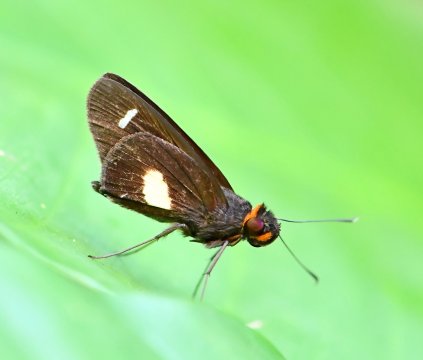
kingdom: Animalia
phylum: Arthropoda
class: Insecta
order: Lepidoptera
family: Hesperiidae
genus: Cobalus
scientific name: Cobalus calvina
